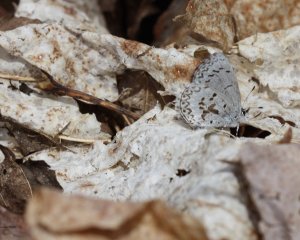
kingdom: Animalia
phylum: Arthropoda
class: Insecta
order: Lepidoptera
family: Lycaenidae
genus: Celastrina
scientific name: Celastrina lucia
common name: Northern Spring Azure
